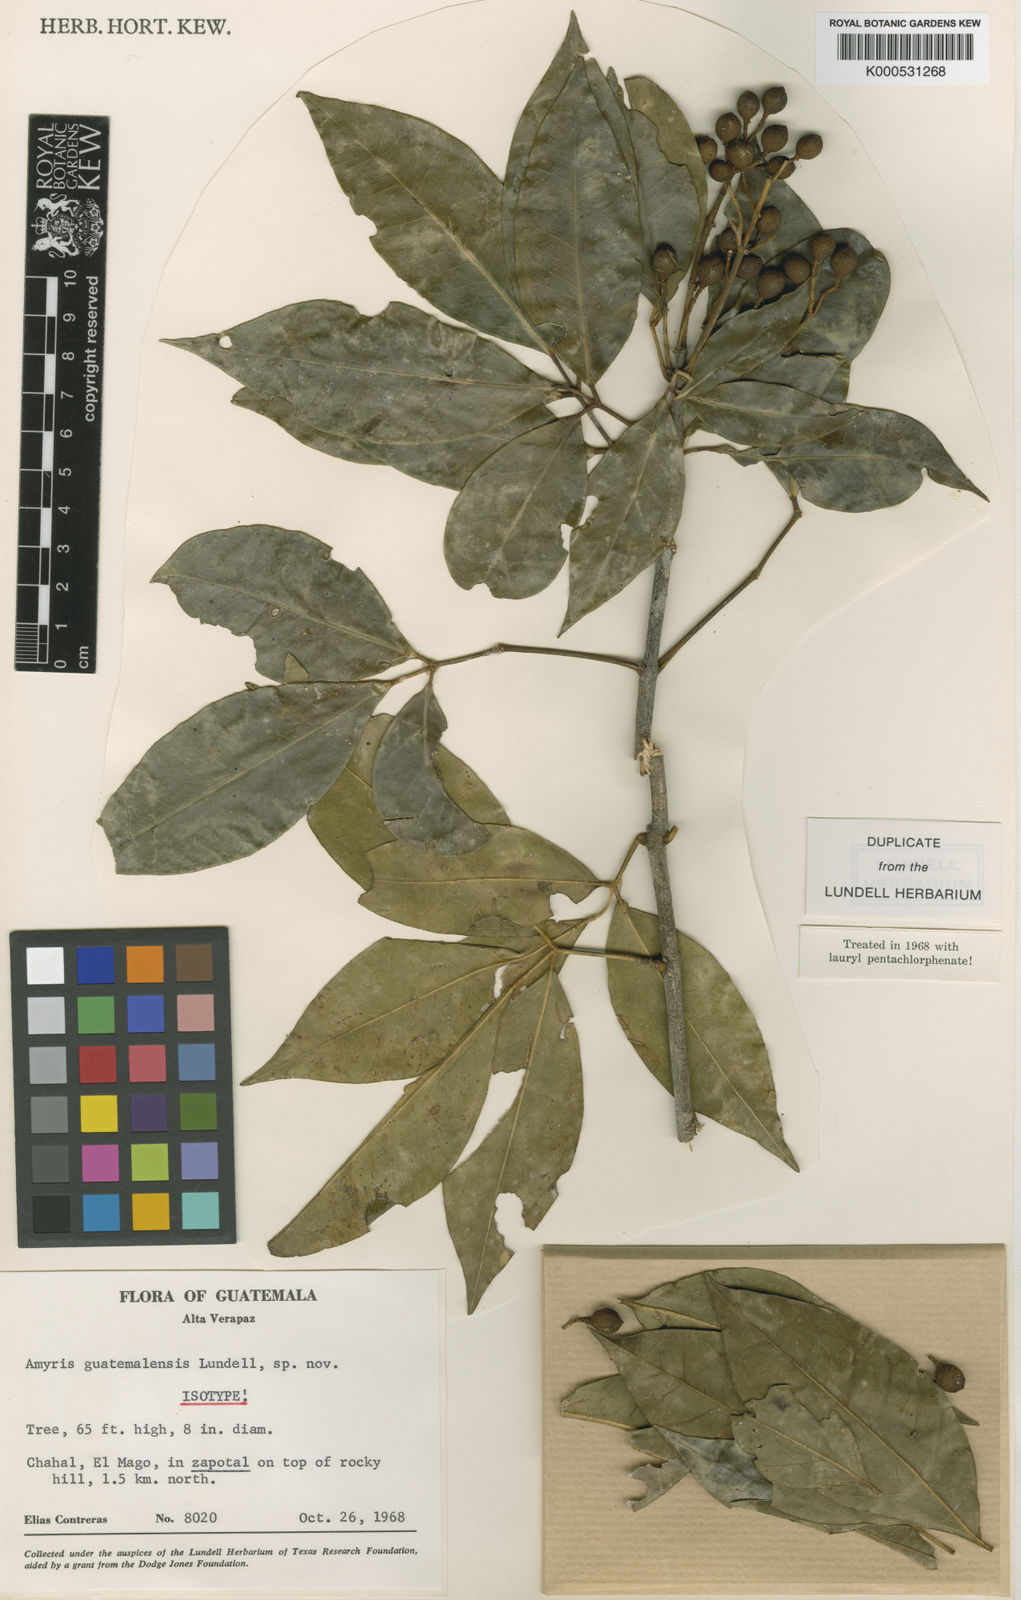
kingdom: Plantae
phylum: Tracheophyta
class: Magnoliopsida
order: Sapindales
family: Rutaceae
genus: Amyris
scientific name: Amyris guatemalensis
